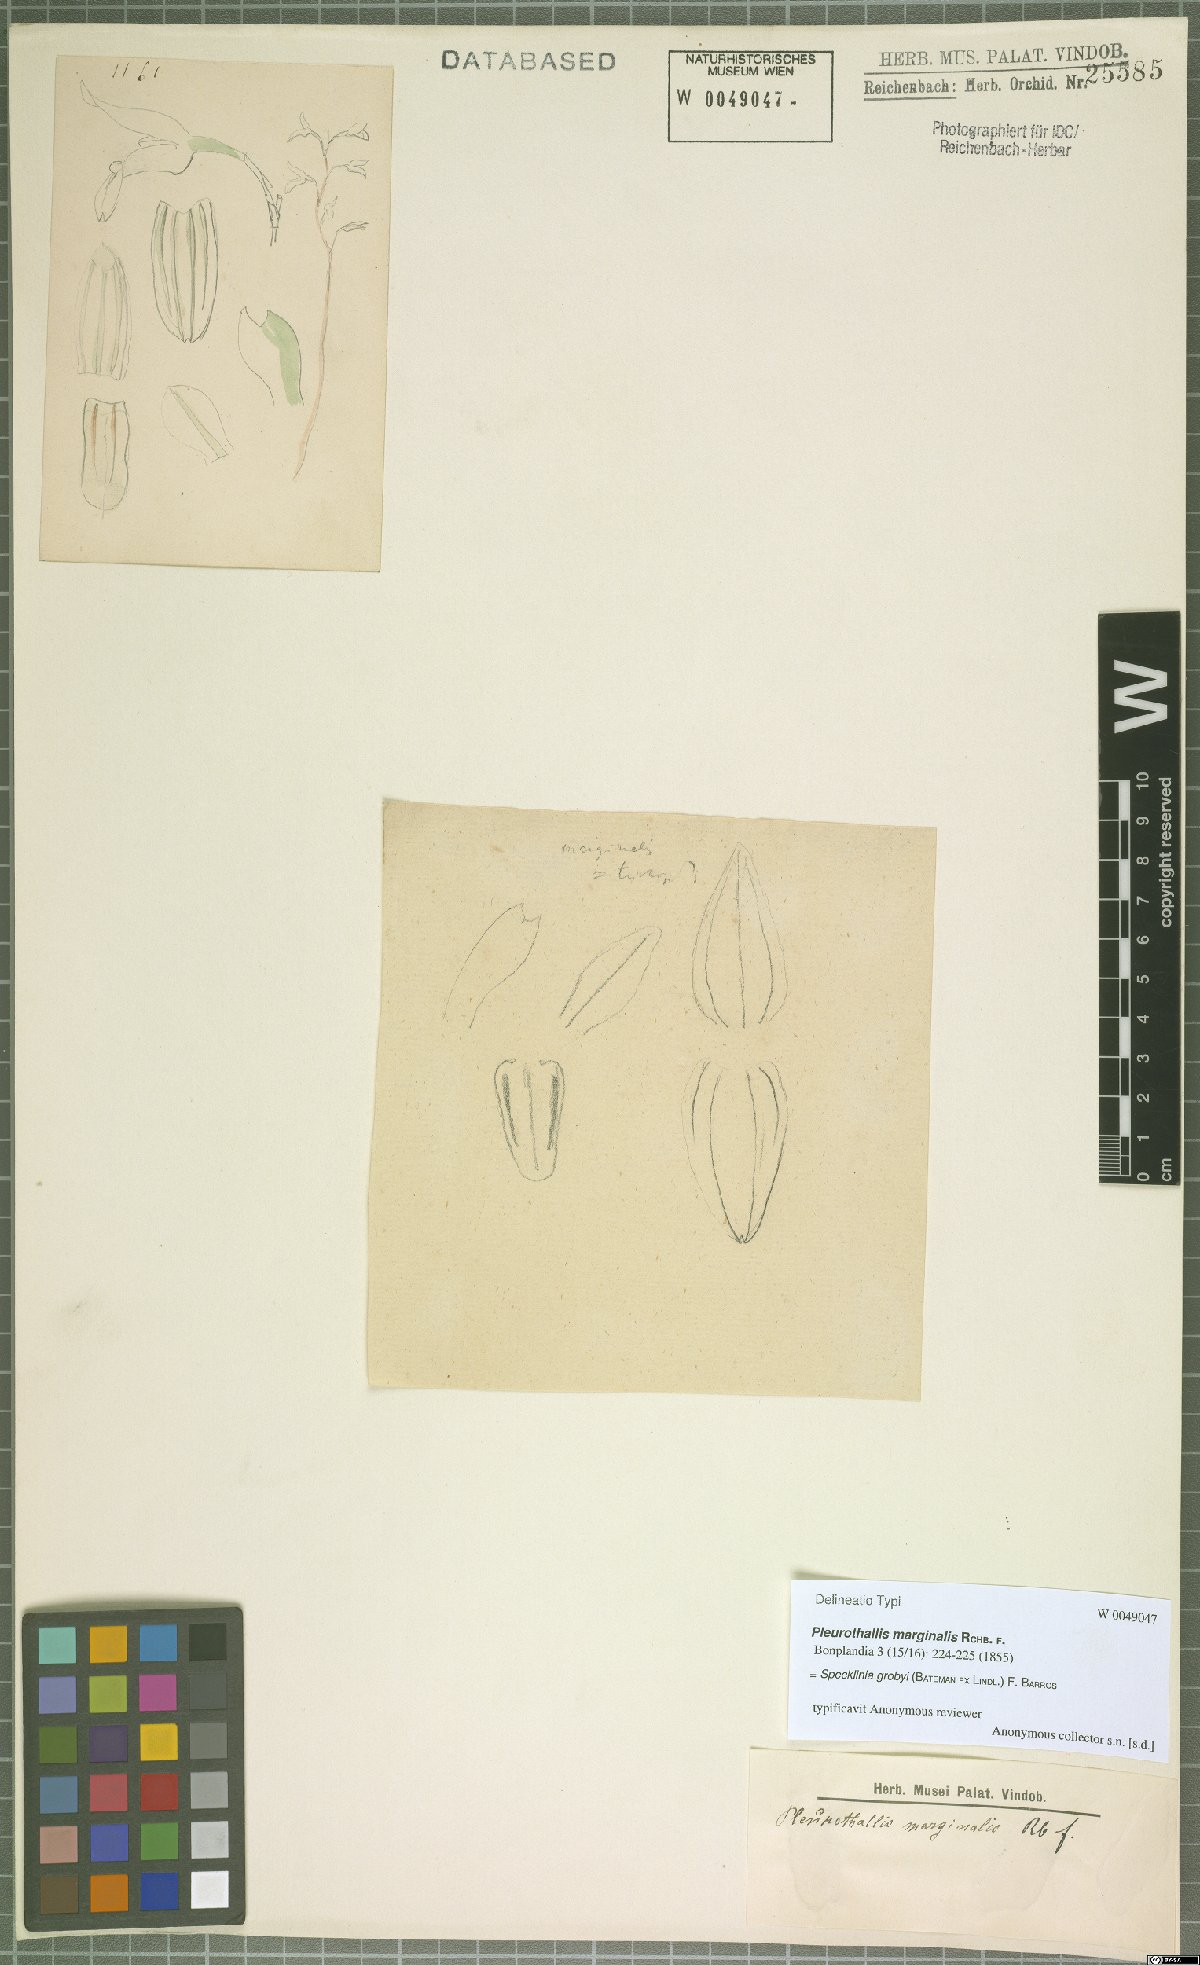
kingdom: Plantae
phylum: Tracheophyta
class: Liliopsida
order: Asparagales
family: Orchidaceae
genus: Specklinia
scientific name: Specklinia grobyi
